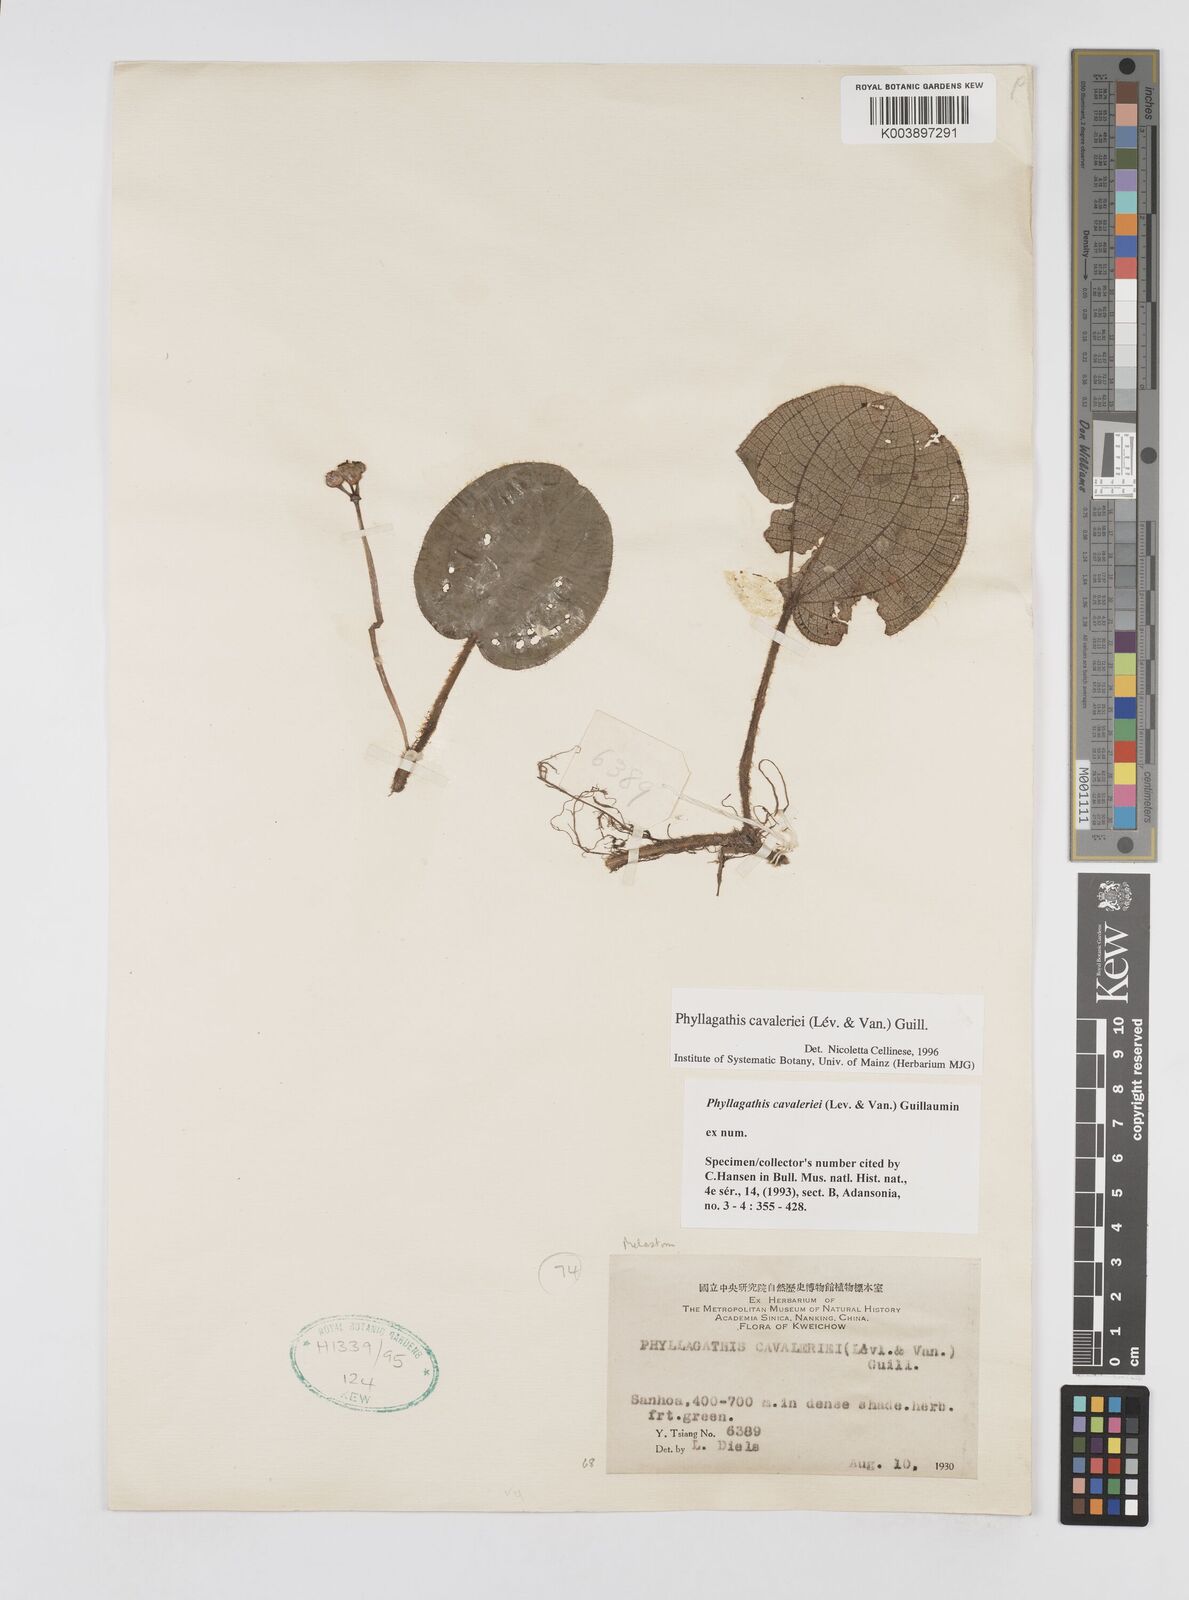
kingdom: Plantae
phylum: Tracheophyta
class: Magnoliopsida
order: Myrtales
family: Melastomataceae
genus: Phyllagathis
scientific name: Phyllagathis cavaleriei
